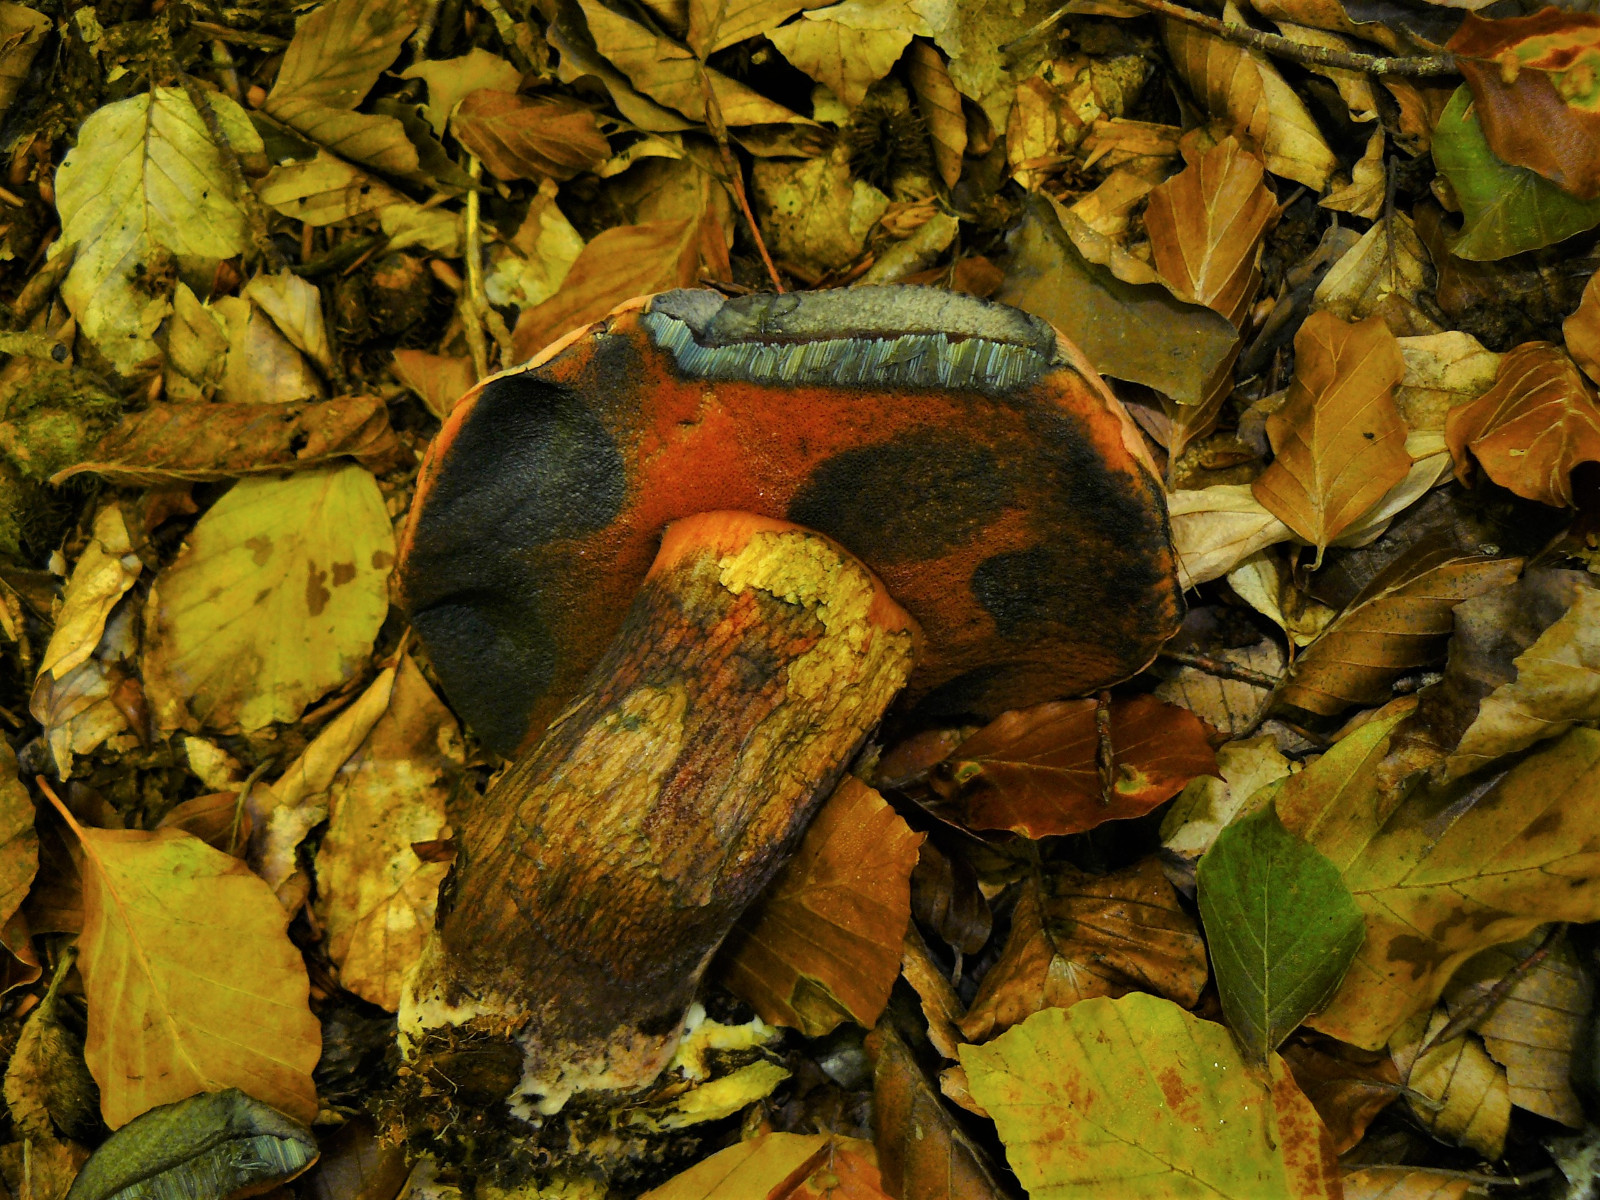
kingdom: Fungi
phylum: Basidiomycota
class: Agaricomycetes
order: Boletales
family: Boletaceae
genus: Suillellus
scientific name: Suillellus luridus
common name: netstokket indigorørhat
